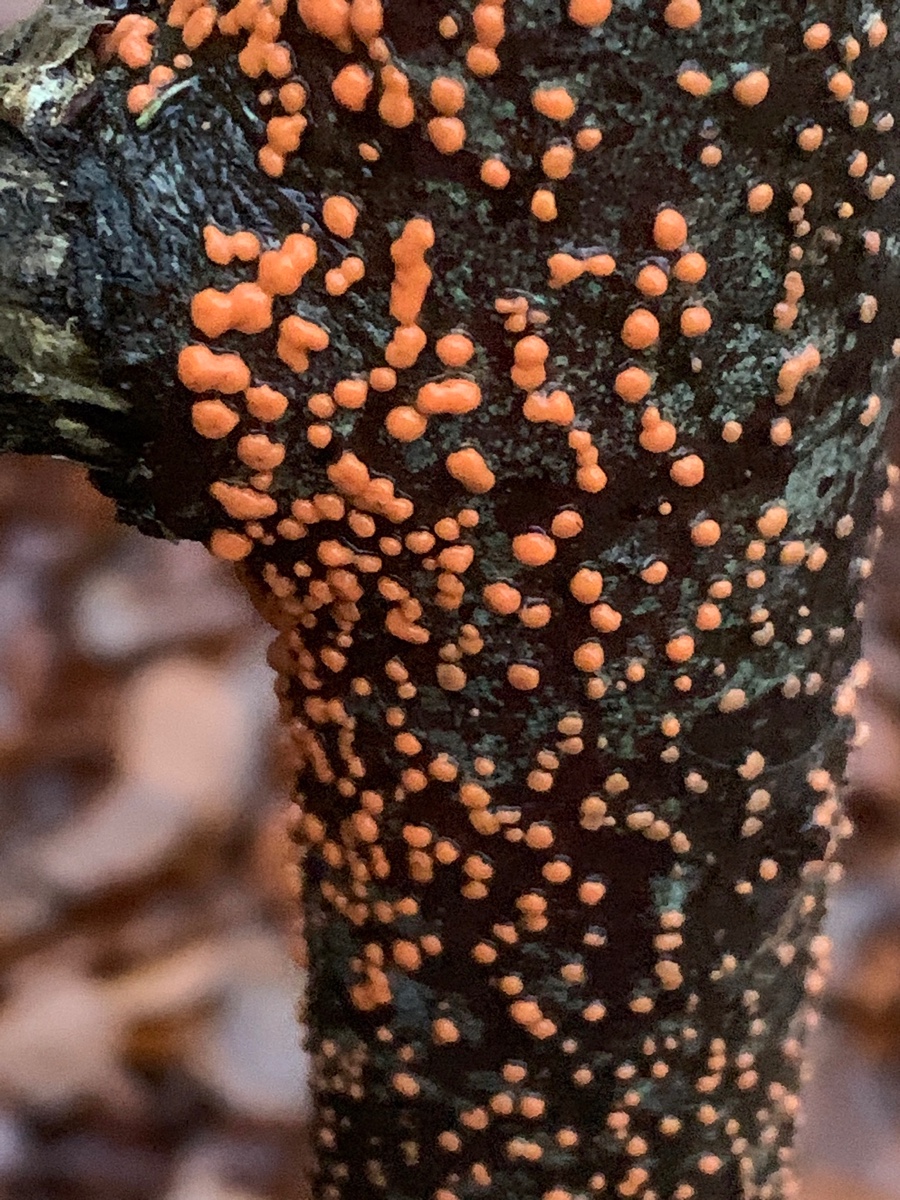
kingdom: Fungi
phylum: Ascomycota
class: Sordariomycetes
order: Hypocreales
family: Nectriaceae
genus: Nectria
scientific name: Nectria cinnabarina
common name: almindelig cinnobersvamp
